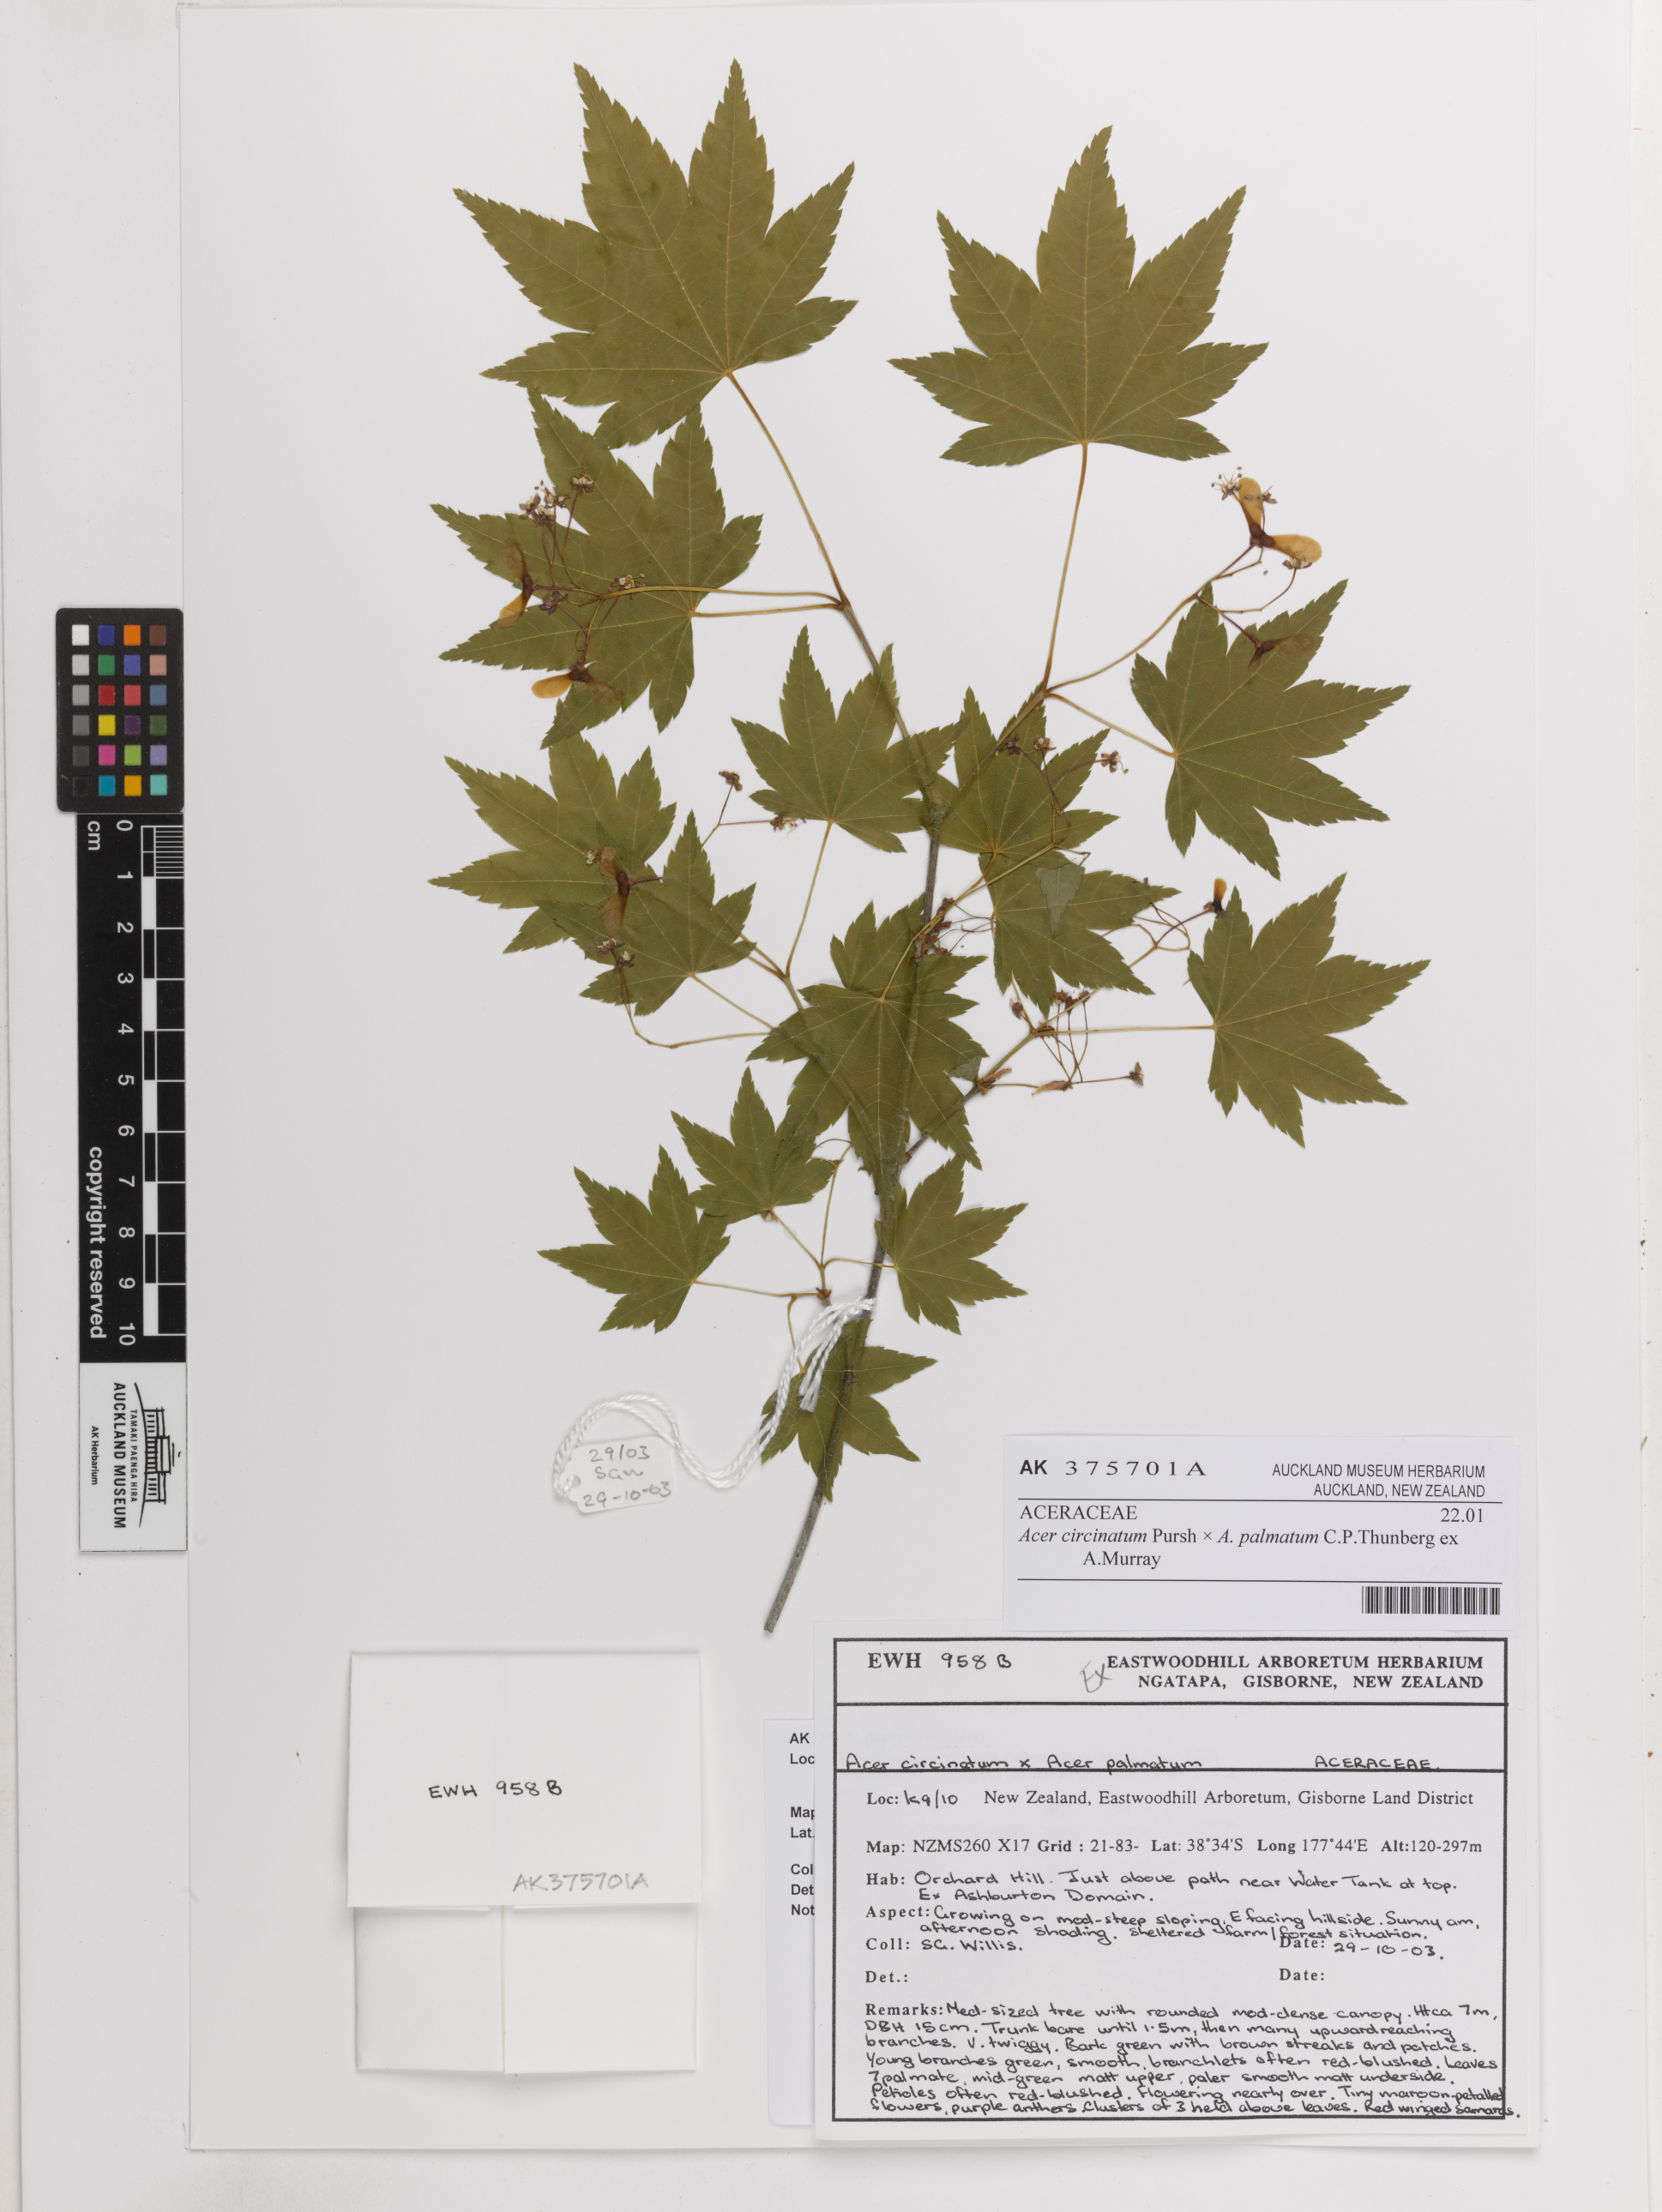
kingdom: Plantae
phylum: Tracheophyta
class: Magnoliopsida
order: Sapindales
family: Sapindaceae
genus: Acer
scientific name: Acer
